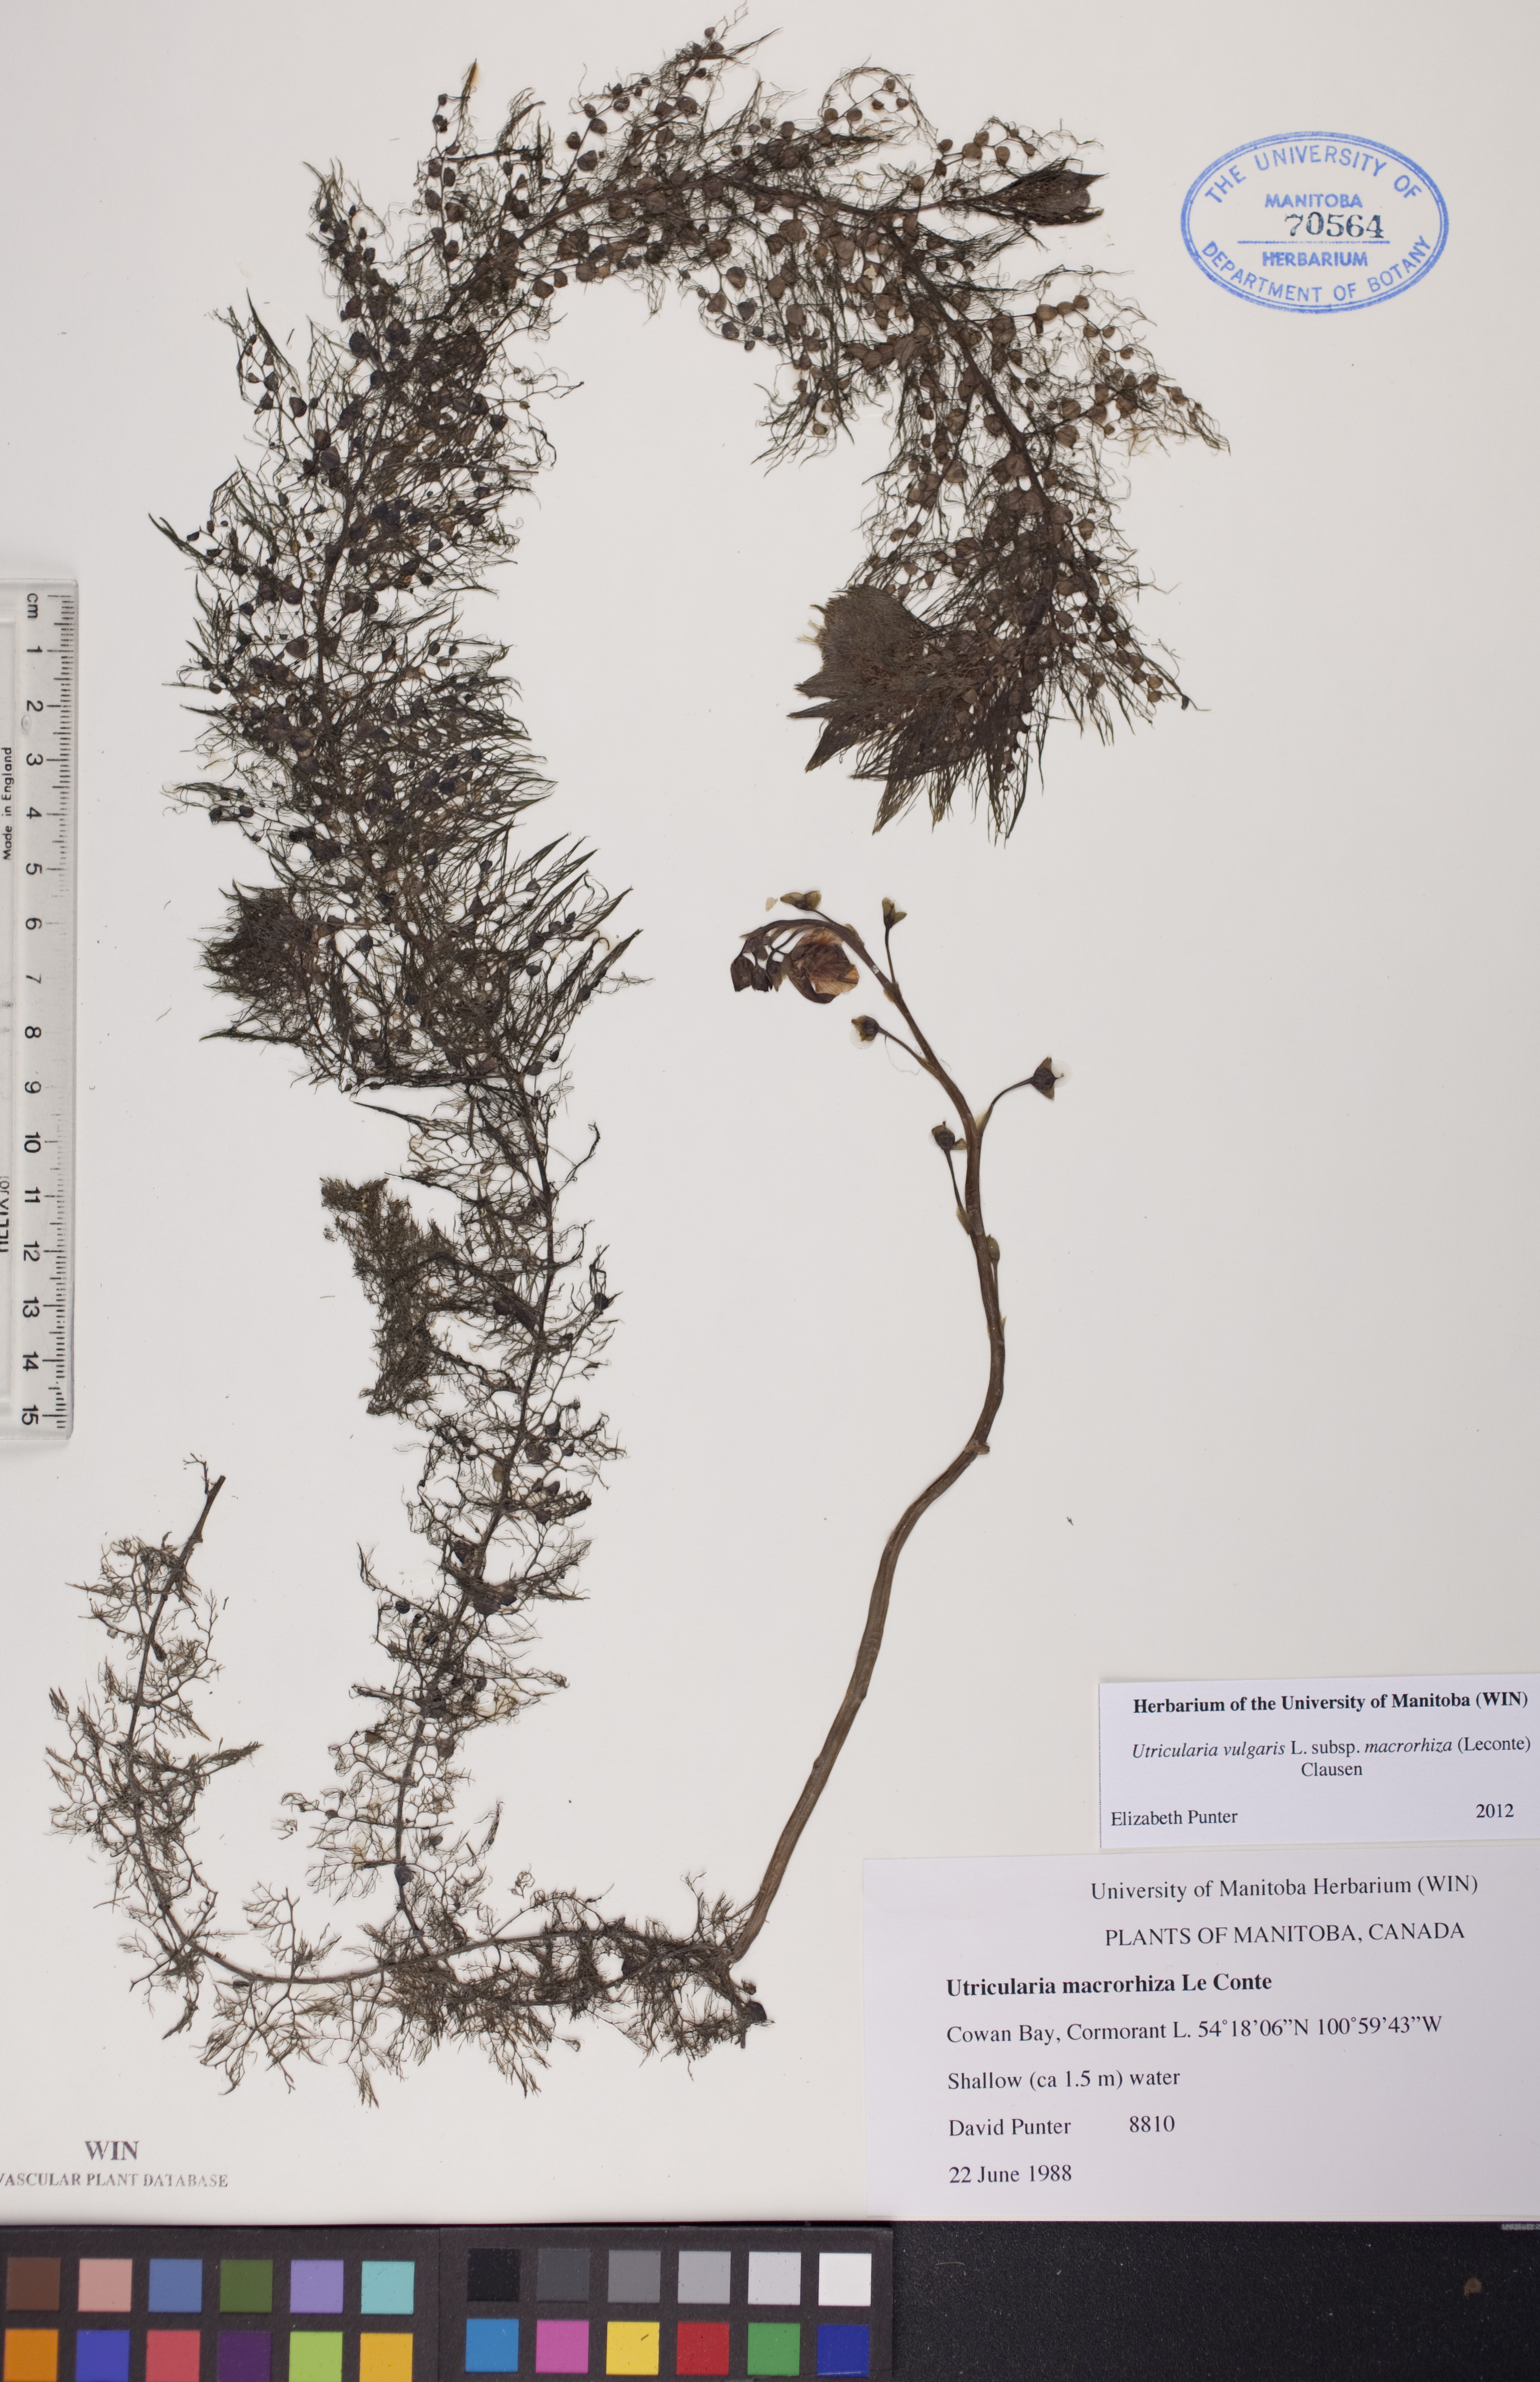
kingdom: Plantae
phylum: Tracheophyta
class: Magnoliopsida
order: Lamiales
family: Lentibulariaceae
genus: Utricularia
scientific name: Utricularia macrorhiza
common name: Common bladderwort
